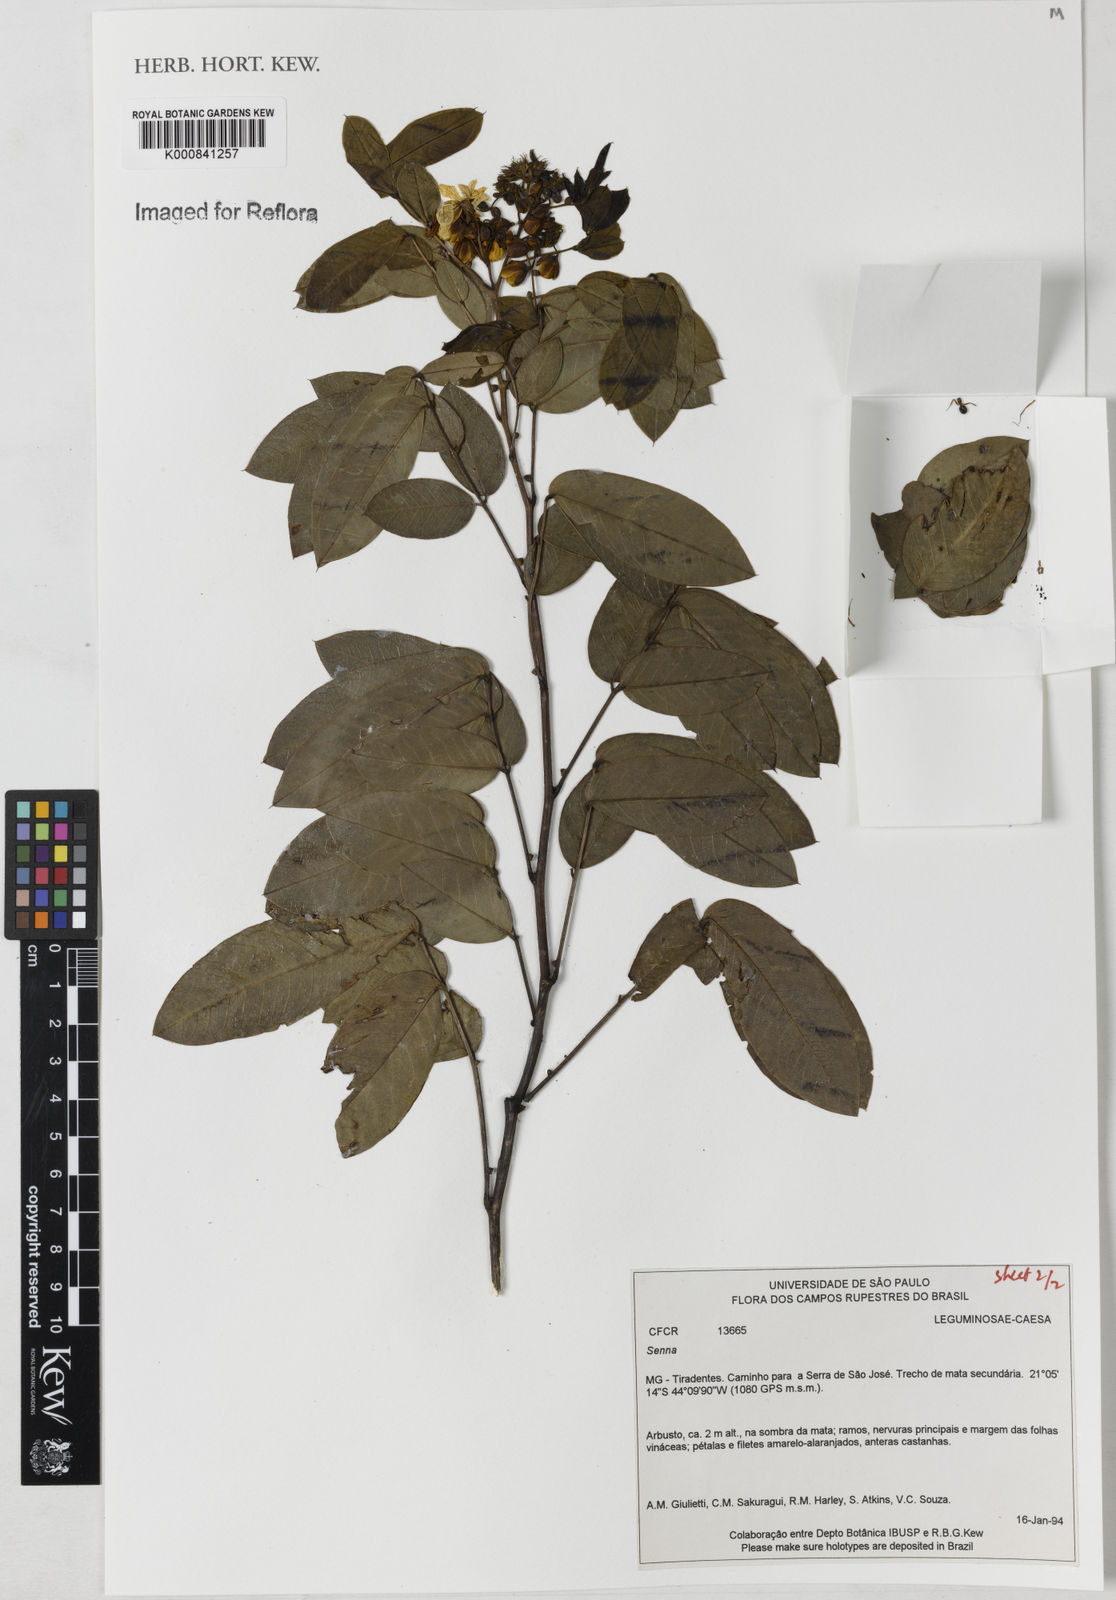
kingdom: Plantae
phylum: Tracheophyta
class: Magnoliopsida
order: Fabales
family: Fabaceae
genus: Senna
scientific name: Senna
